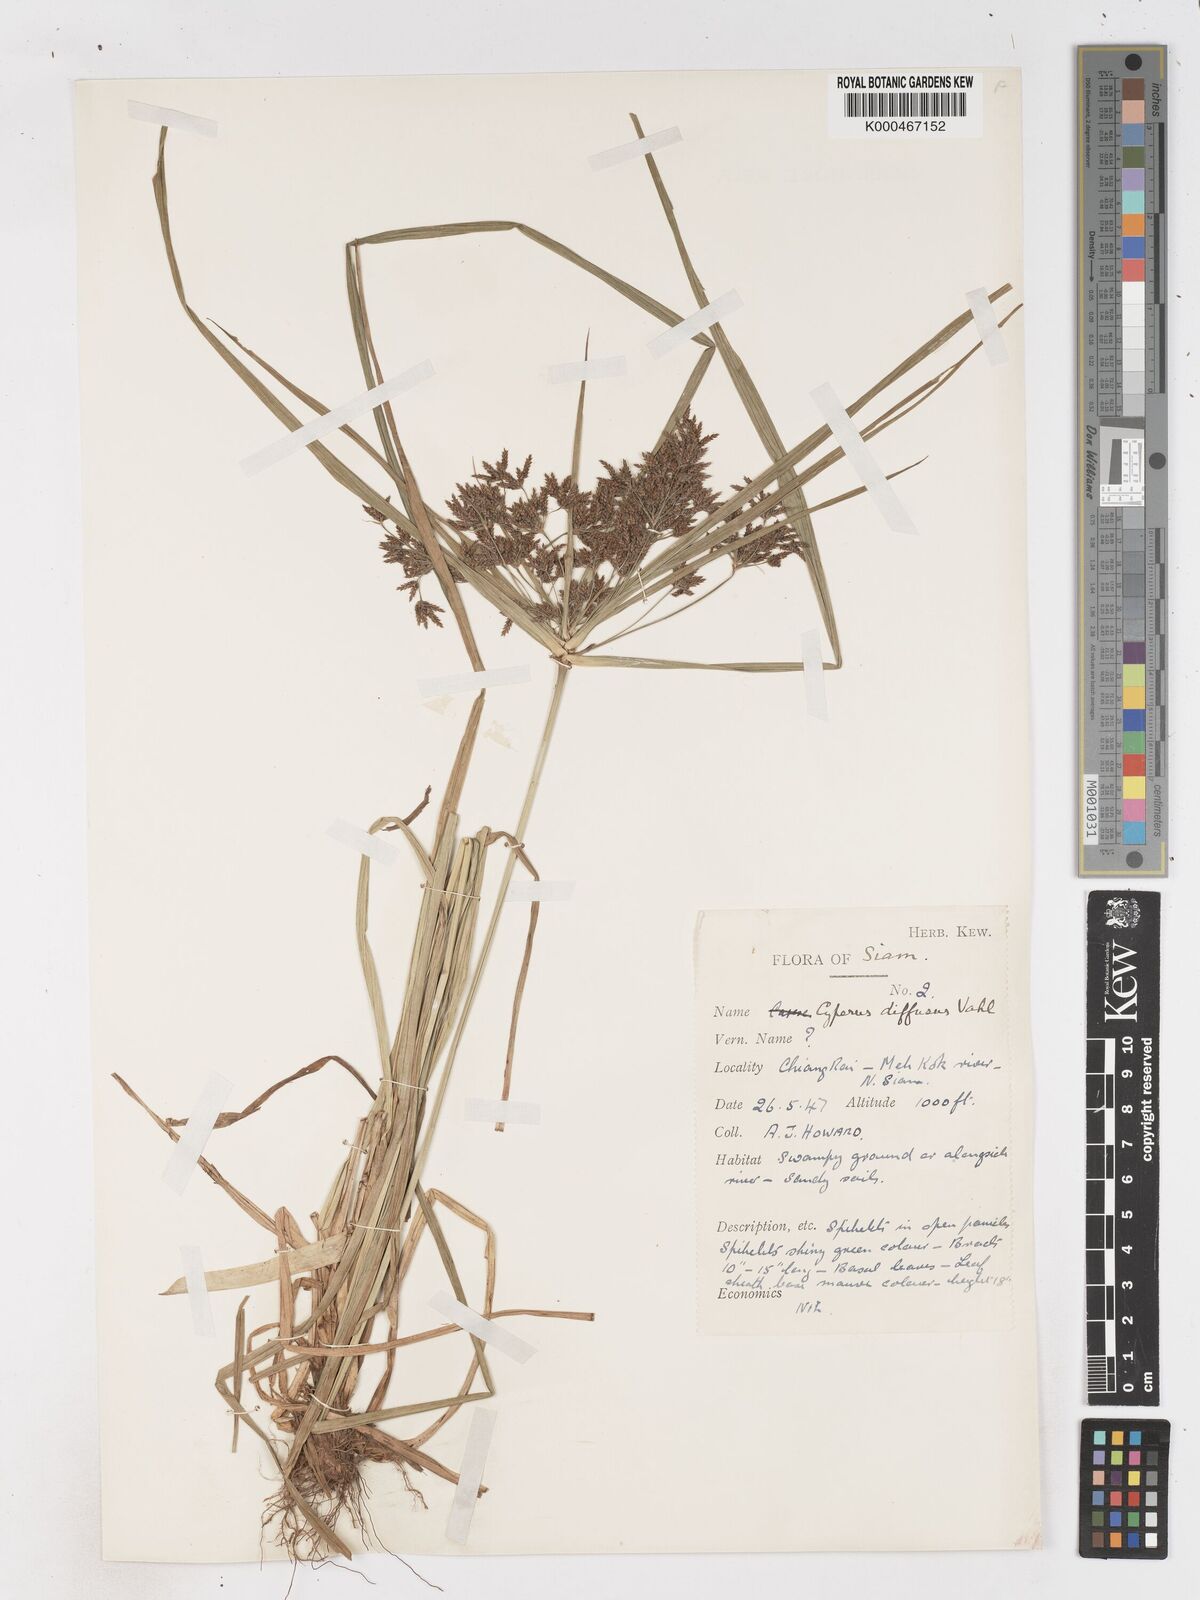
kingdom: Plantae
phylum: Tracheophyta
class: Liliopsida
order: Poales
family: Cyperaceae
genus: Cyperus
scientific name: Cyperus diffusus
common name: Dwarf umbrella grass
